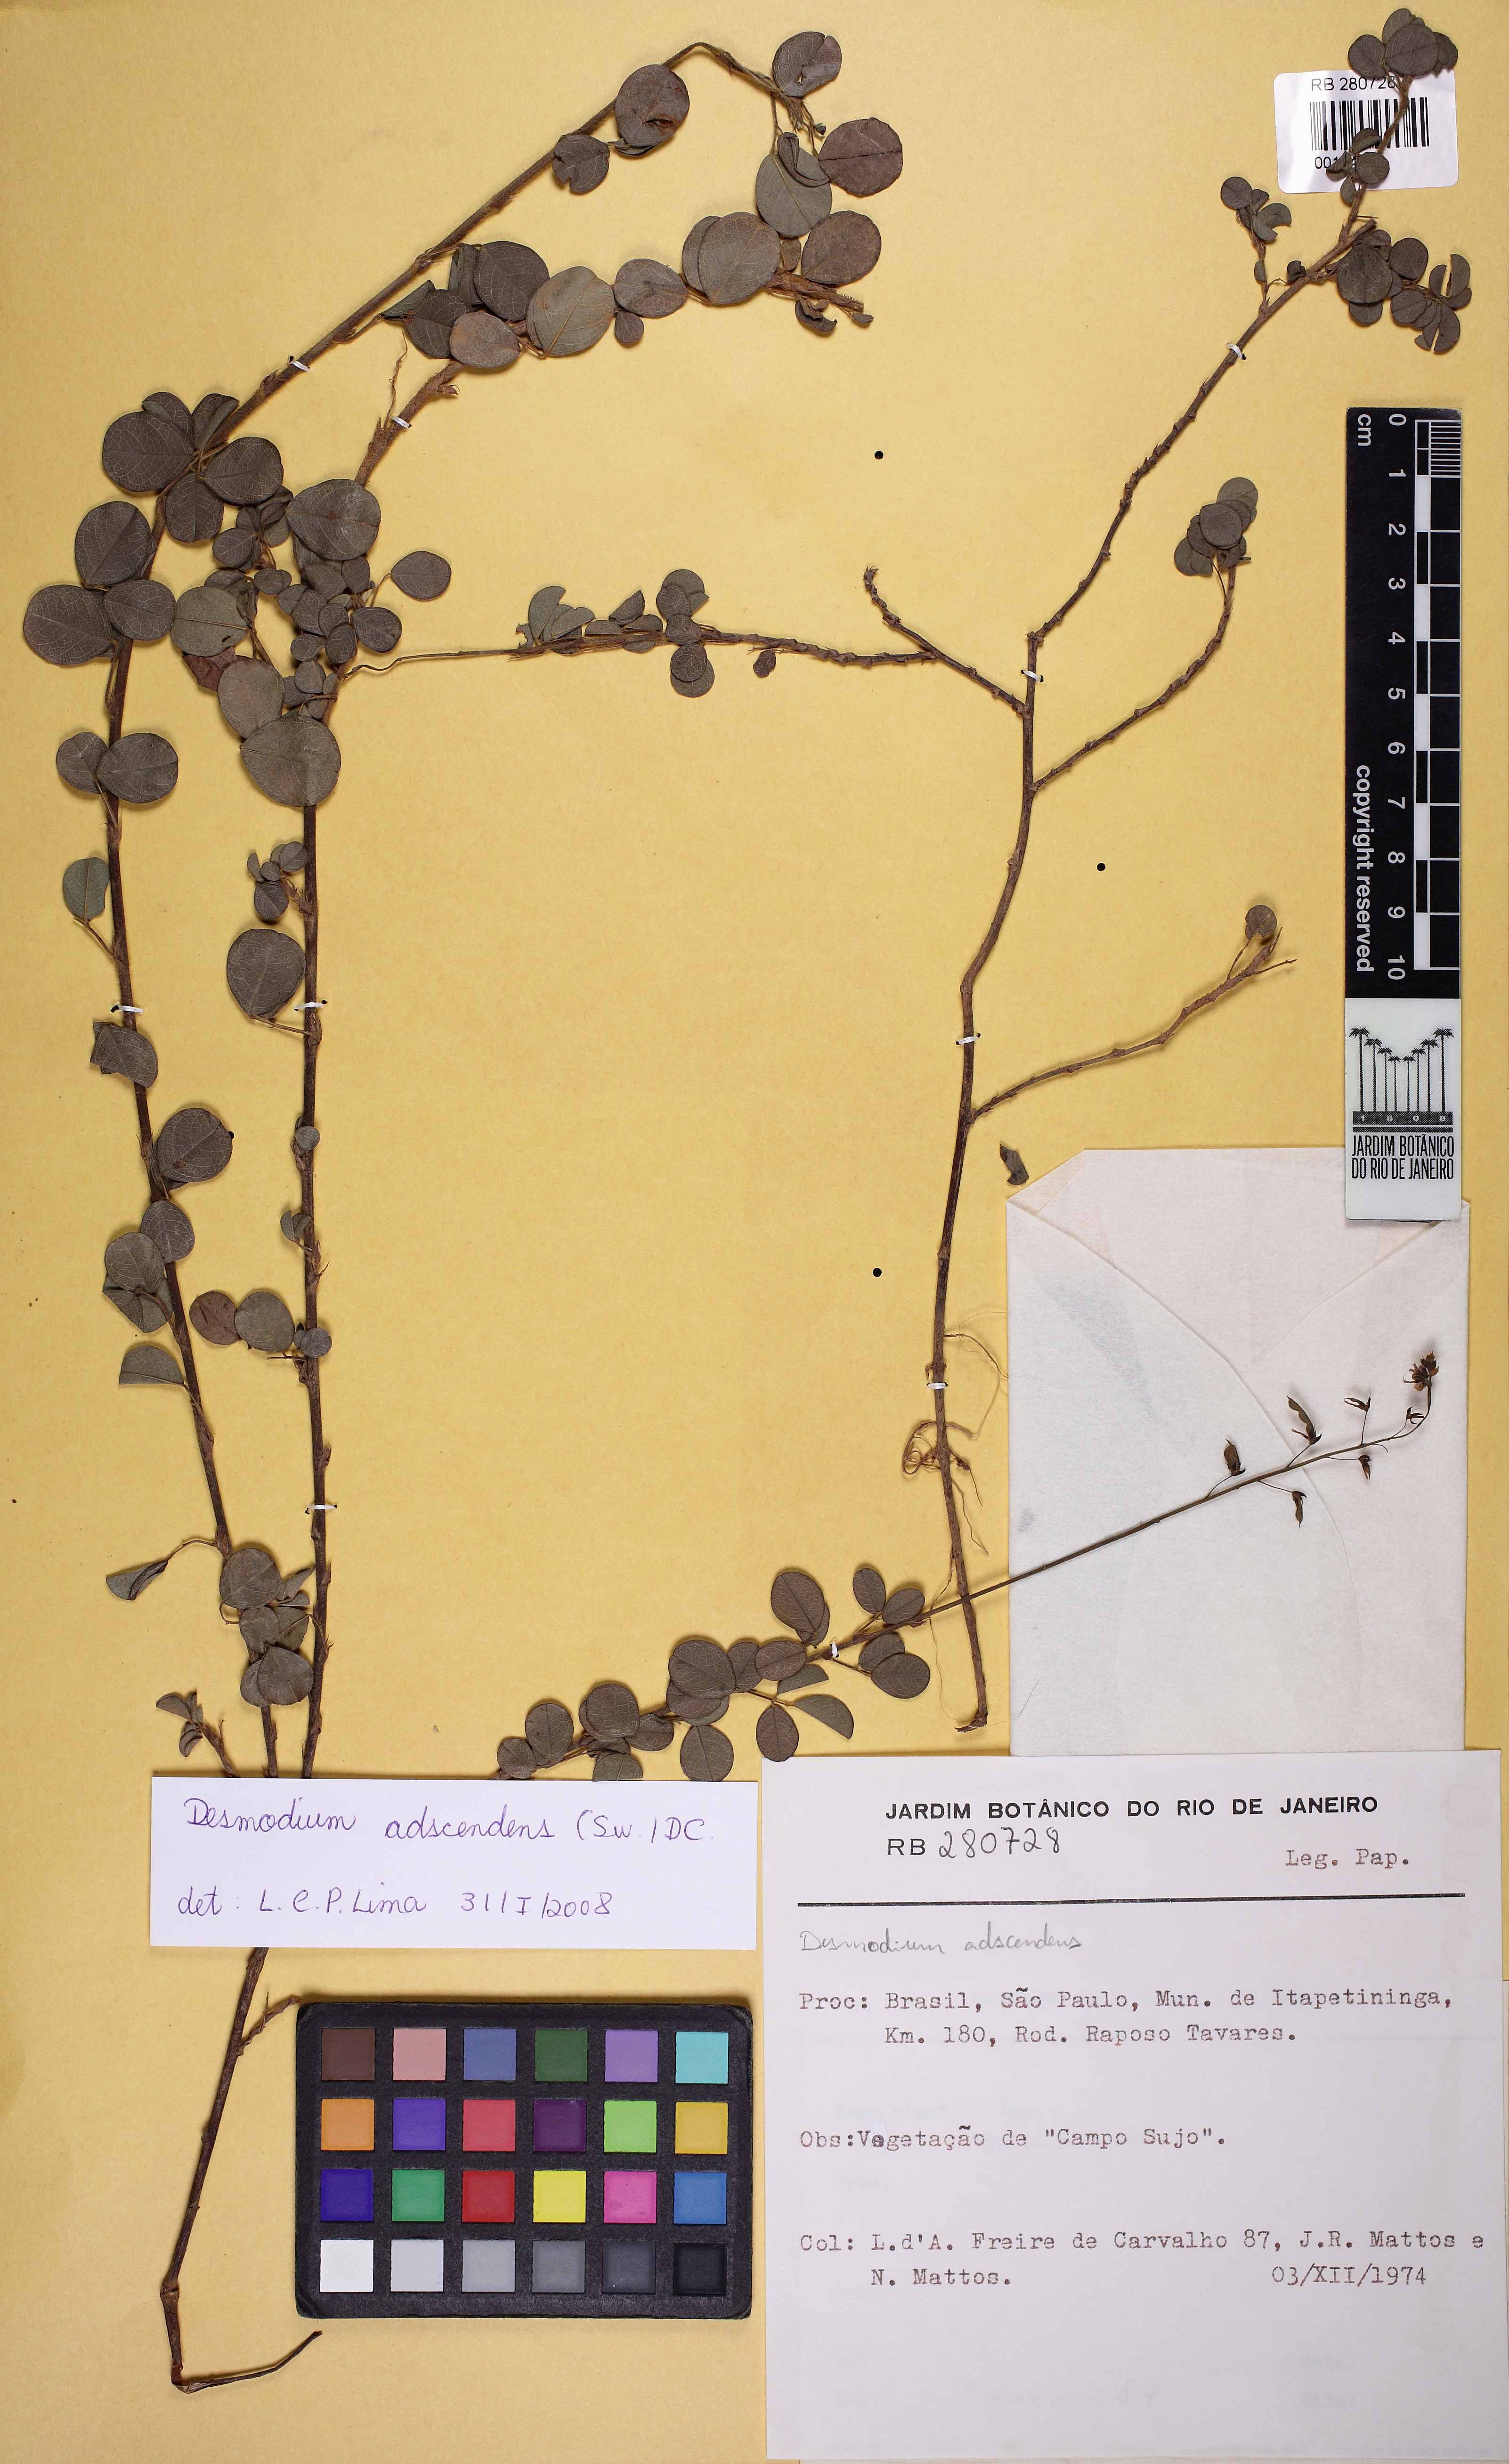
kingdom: Plantae
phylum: Tracheophyta
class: Magnoliopsida
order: Fabales
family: Fabaceae
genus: Grona
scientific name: Grona adscendens
